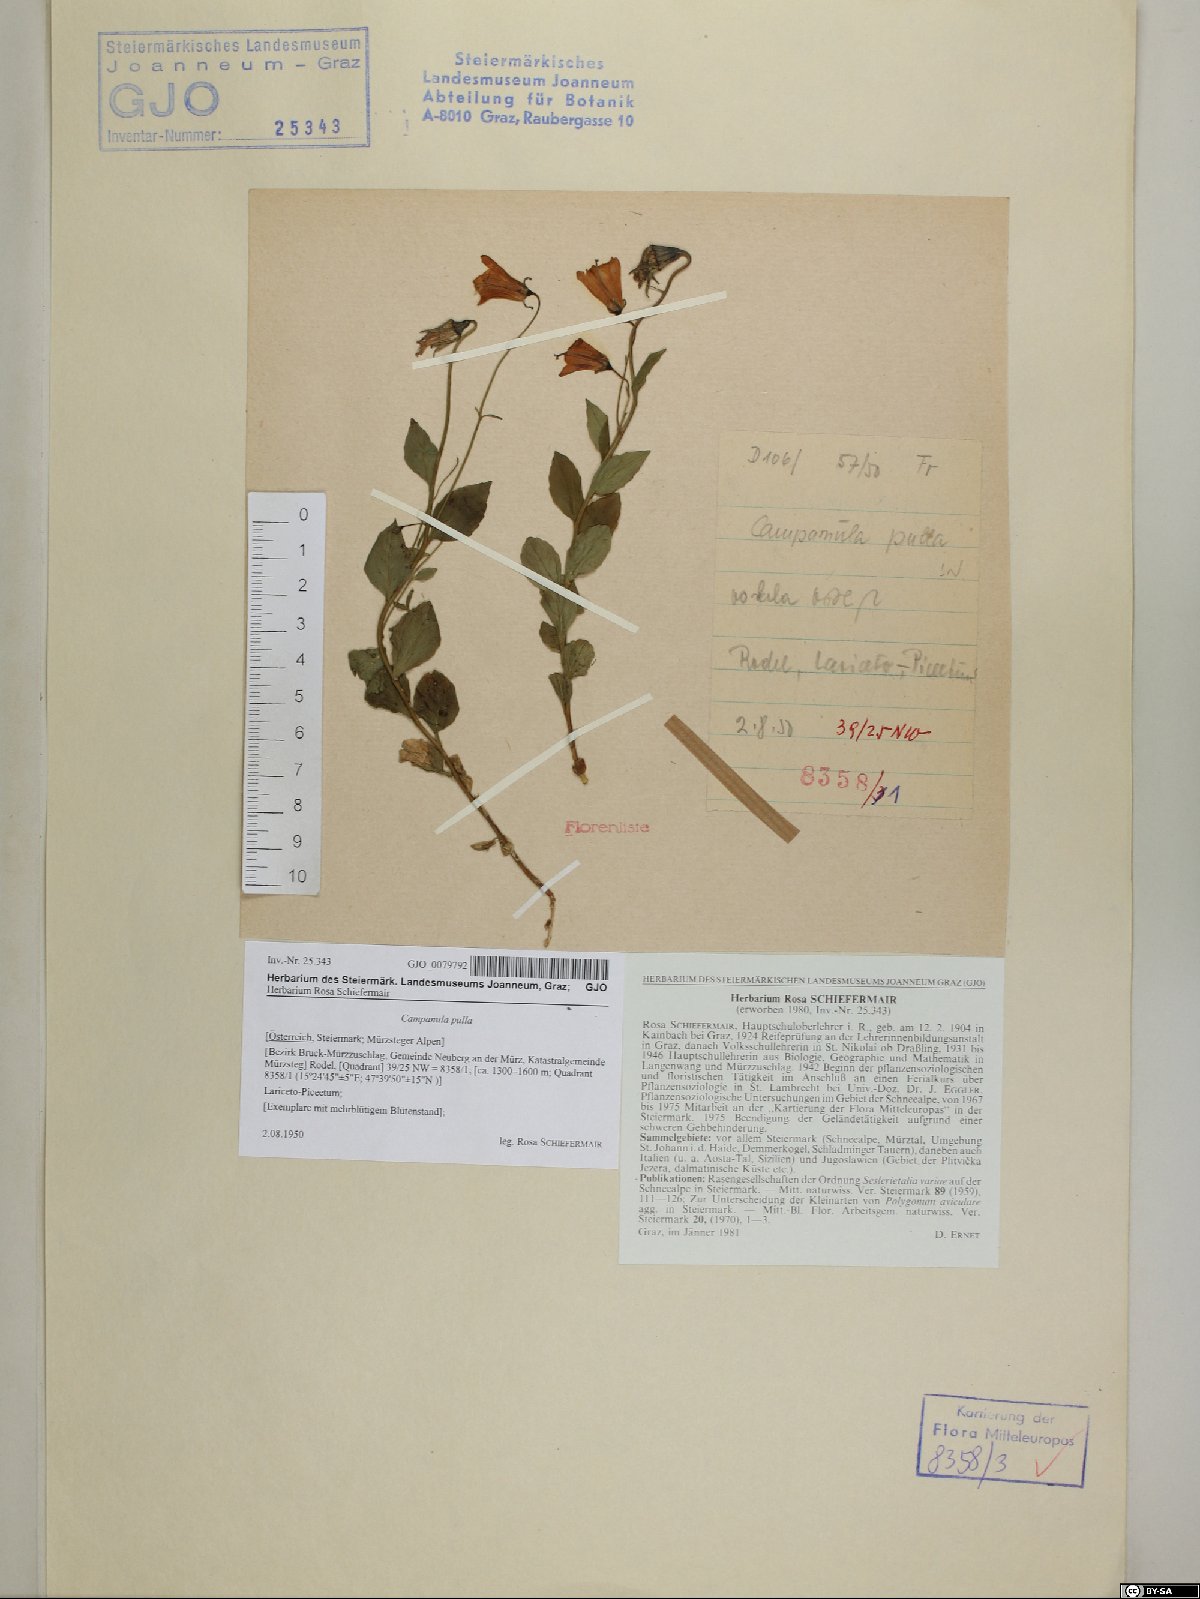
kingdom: Plantae
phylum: Tracheophyta
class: Magnoliopsida
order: Asterales
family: Campanulaceae
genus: Campanula
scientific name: Campanula pulla
